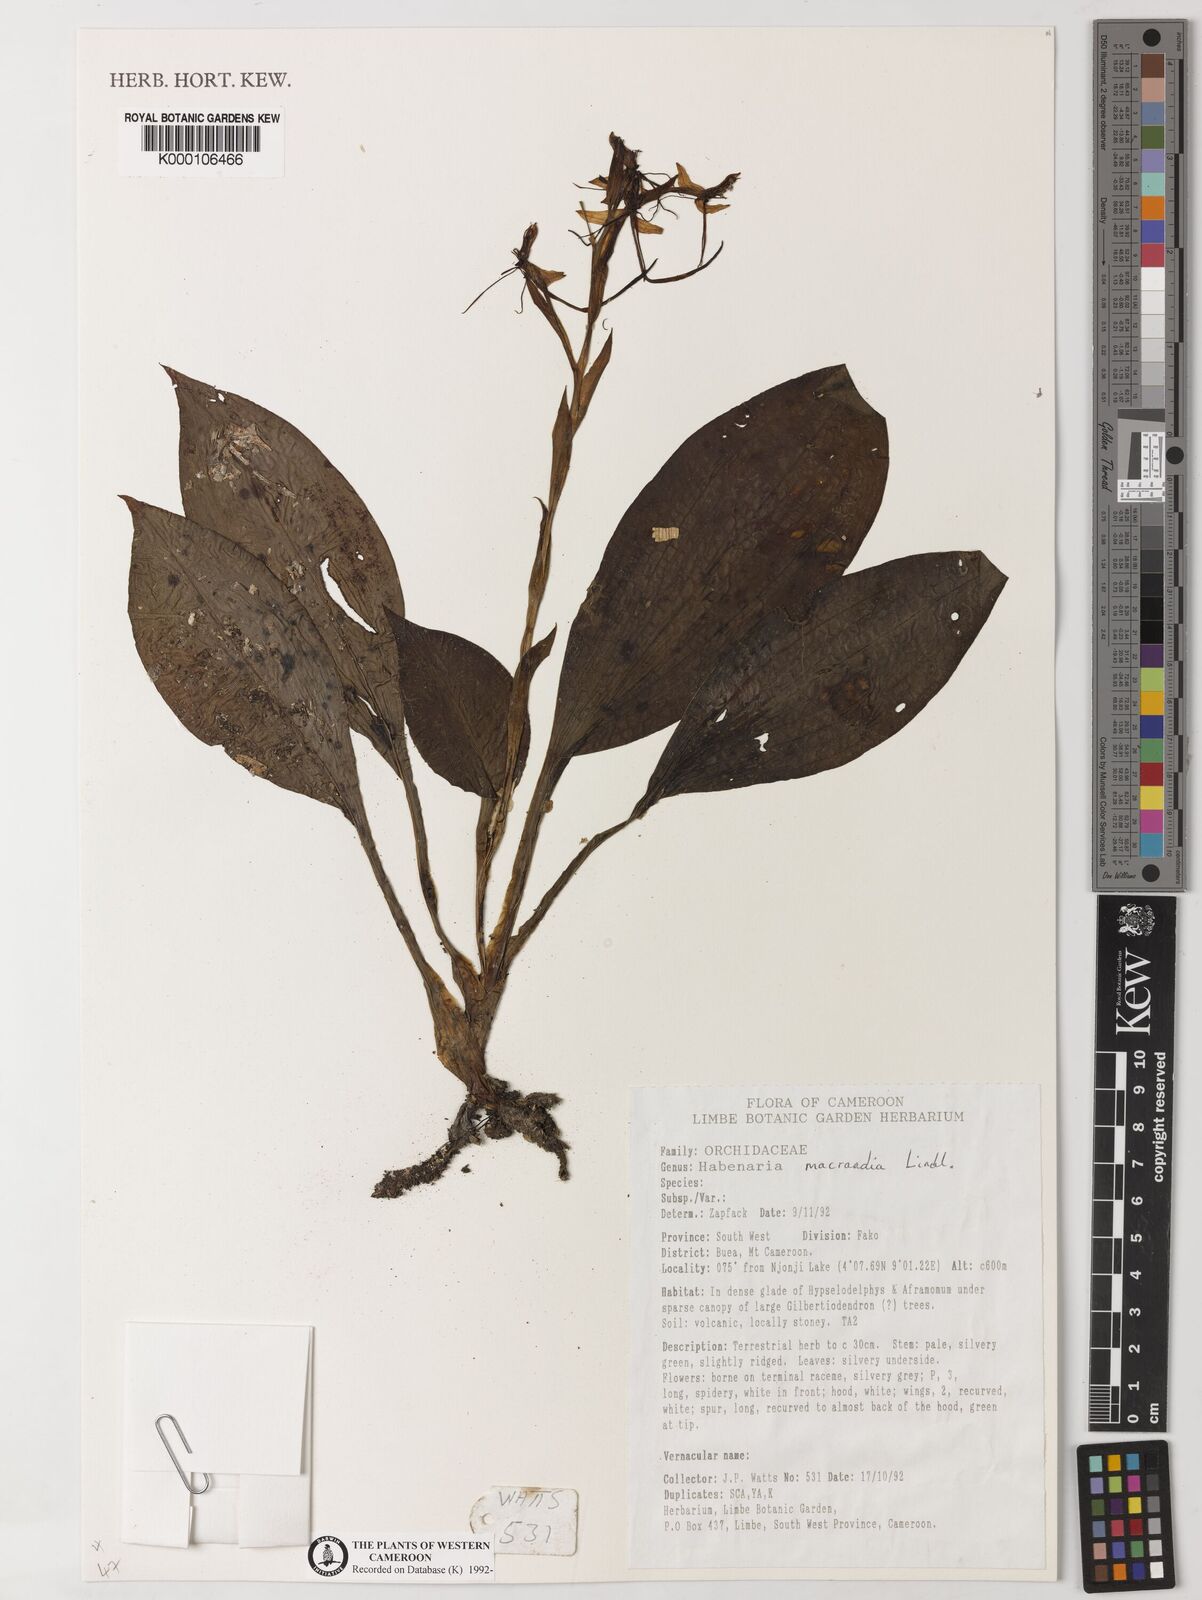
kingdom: Plantae
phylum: Tracheophyta
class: Liliopsida
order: Asparagales
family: Orchidaceae
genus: Habenaria
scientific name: Habenaria macrandra
